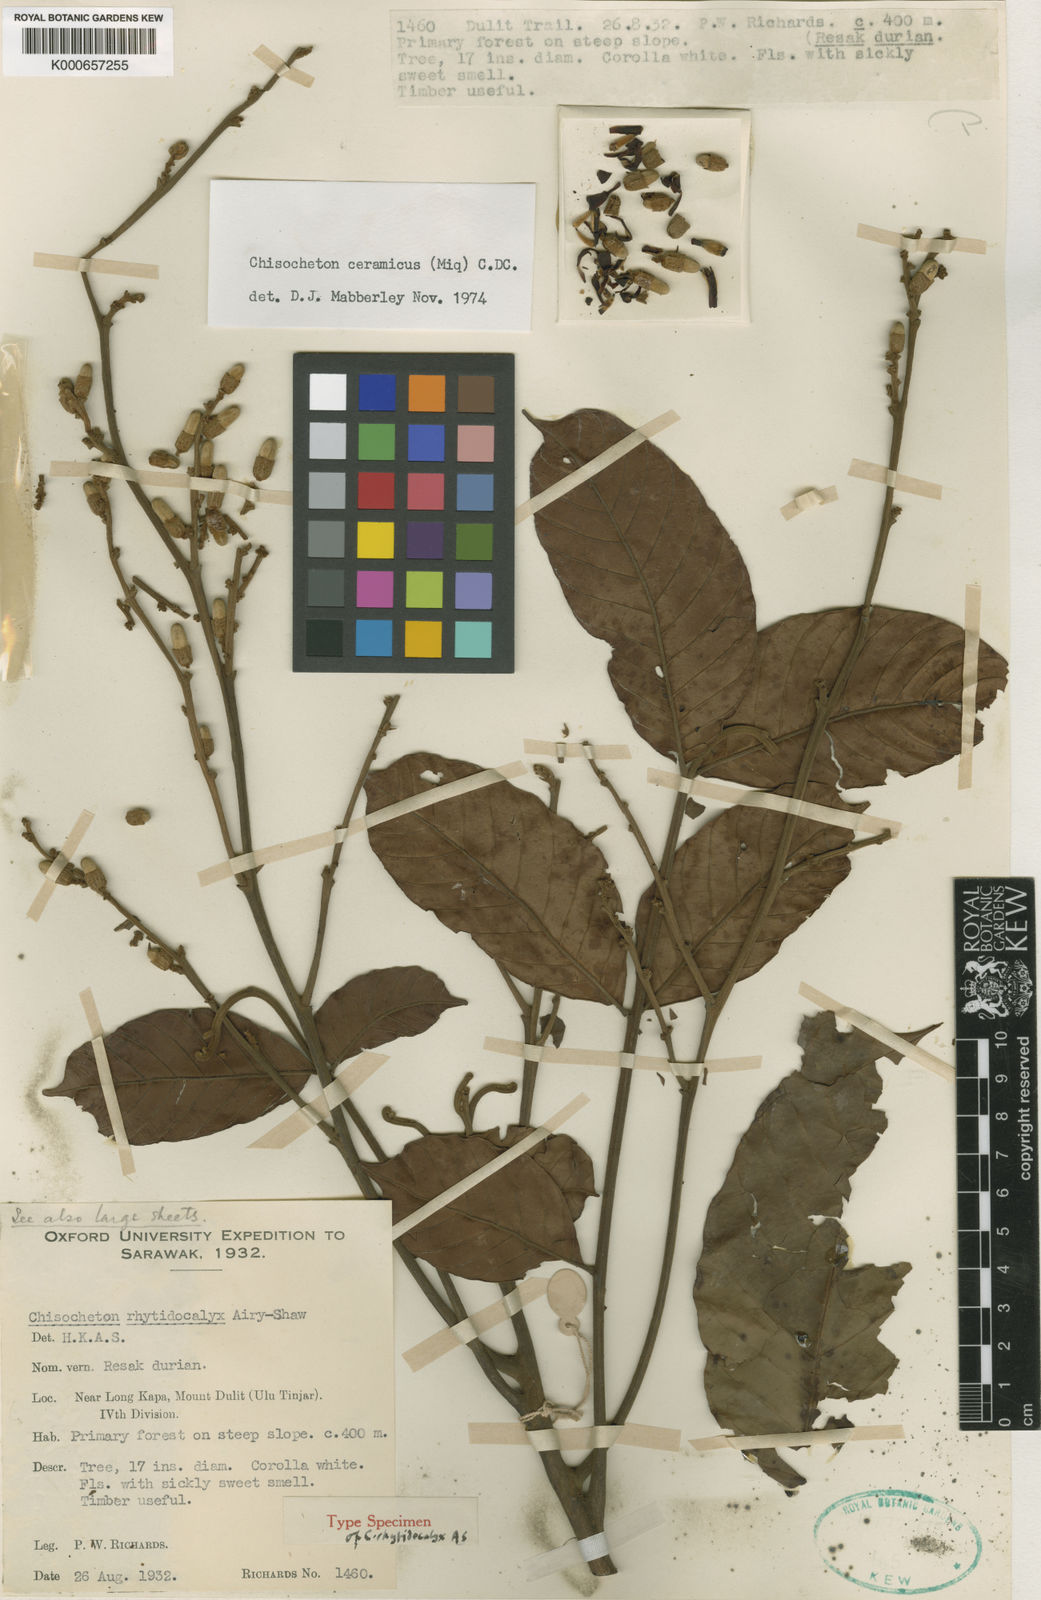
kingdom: Plantae
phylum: Tracheophyta
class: Magnoliopsida
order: Sapindales
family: Meliaceae
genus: Chisocheton
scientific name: Chisocheton ceramicus
